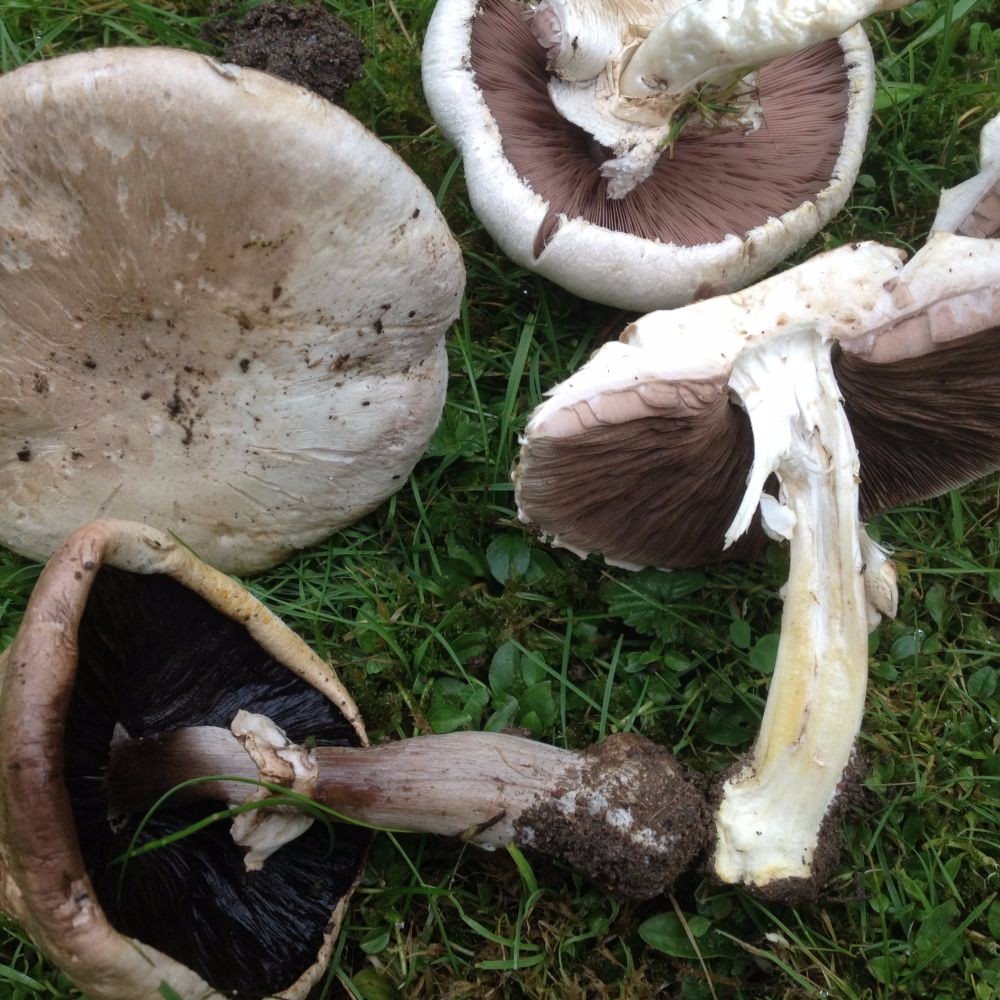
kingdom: Fungi
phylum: Basidiomycota
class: Agaricomycetes
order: Agaricales
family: Agaricaceae
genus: Agaricus
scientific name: Agaricus xanthodermus
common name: karbol-champignon
